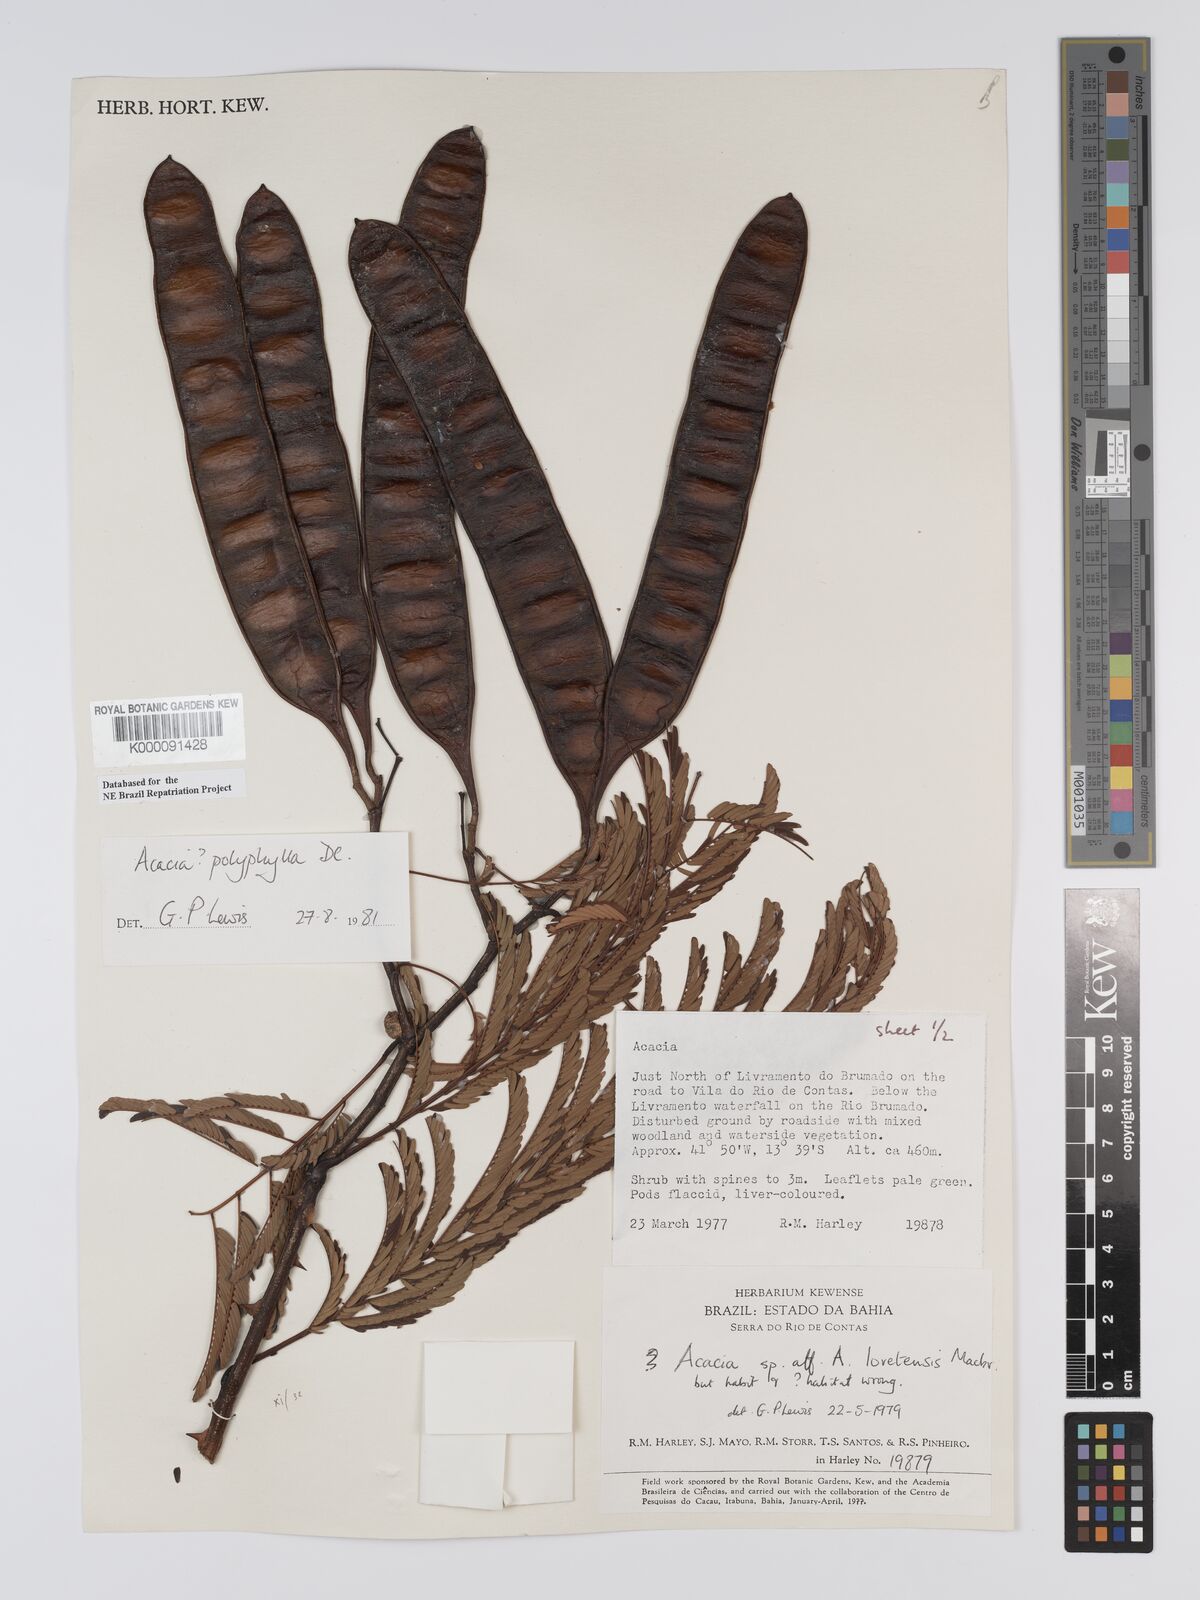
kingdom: Plantae
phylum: Tracheophyta
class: Magnoliopsida
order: Fabales
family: Fabaceae
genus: Senegalia
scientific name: Senegalia polyphylla
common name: White-tamarind
